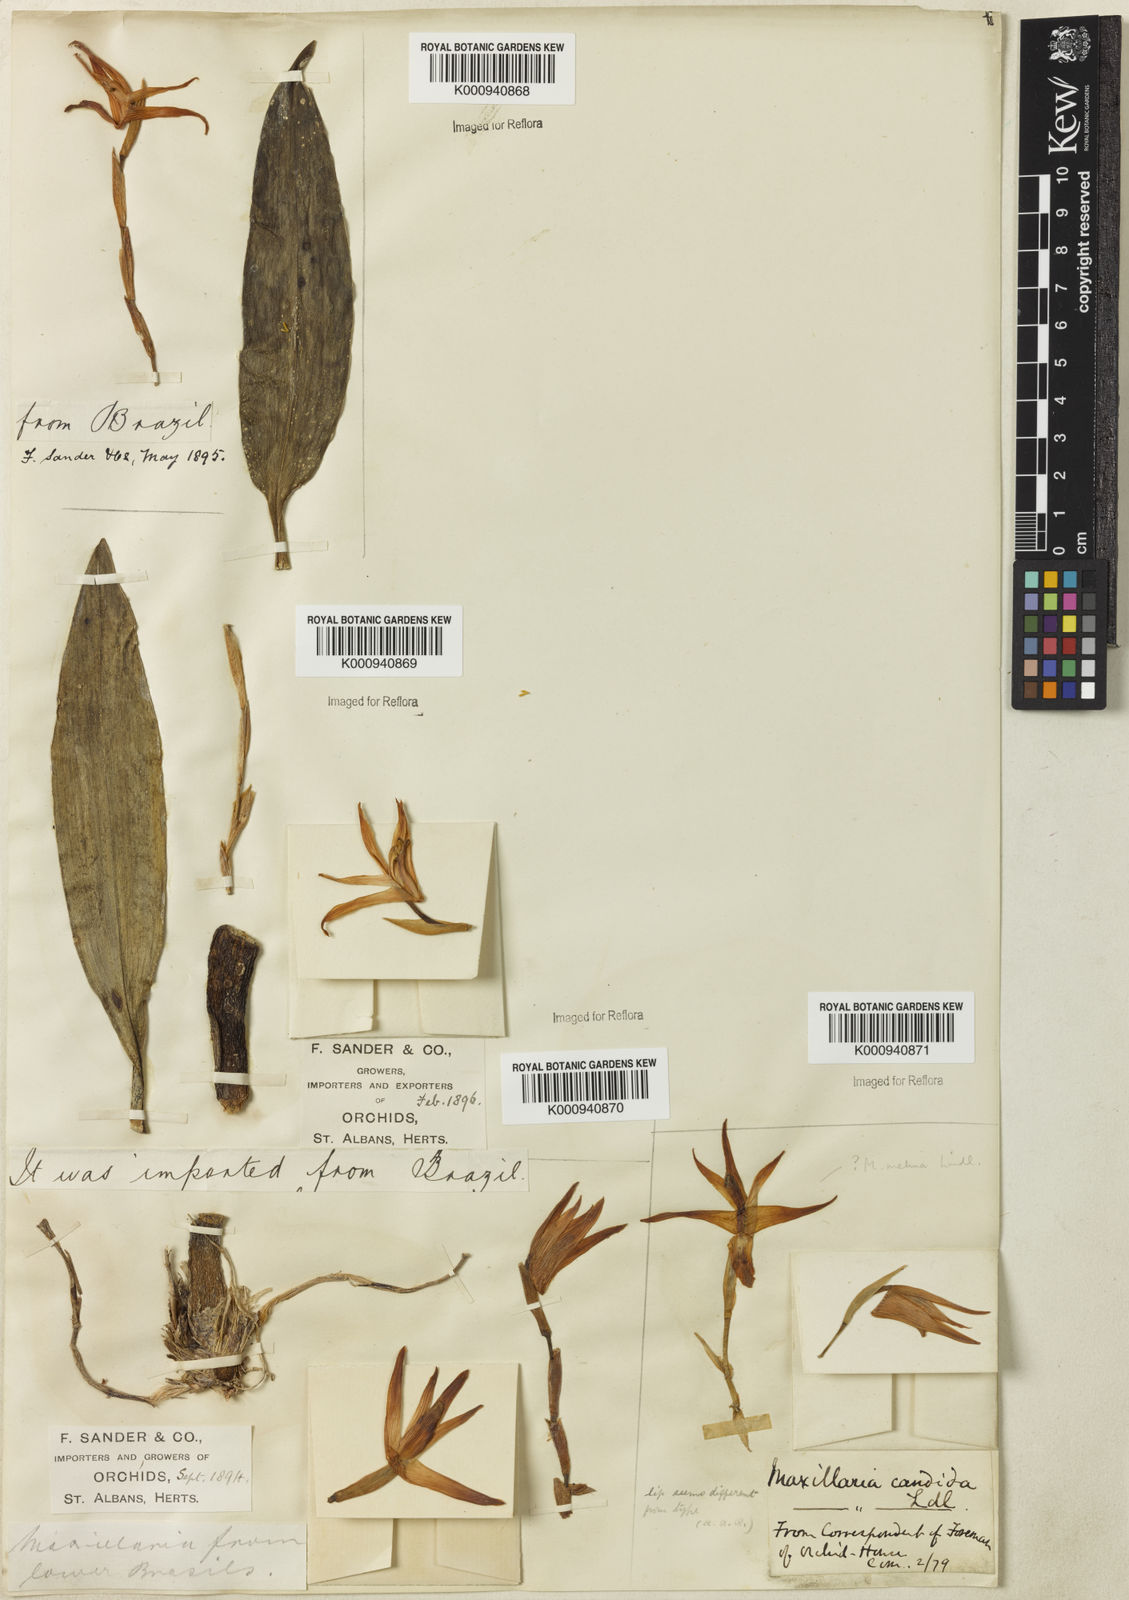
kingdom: Plantae
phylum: Tracheophyta
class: Liliopsida
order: Asparagales
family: Orchidaceae
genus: Maxillaria
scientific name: Maxillaria candida
